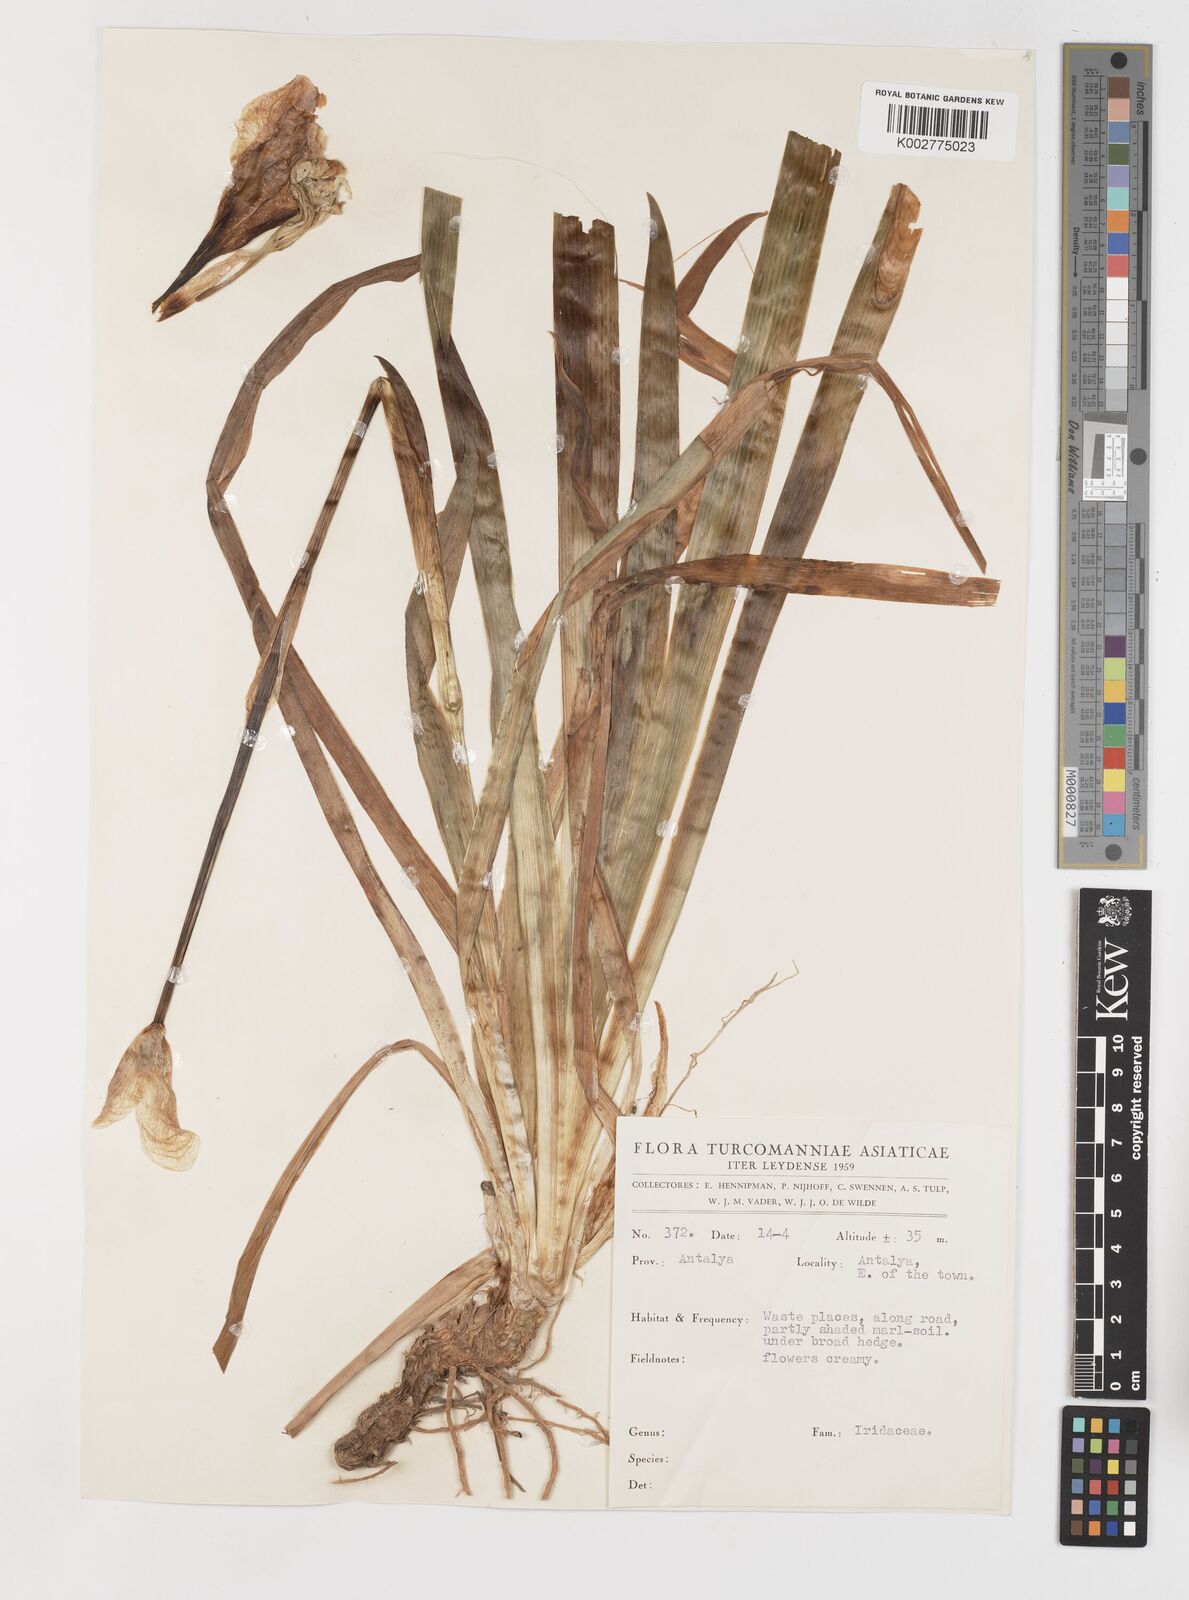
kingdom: Plantae
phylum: Tracheophyta
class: Liliopsida
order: Asparagales
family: Iridaceae
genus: Iris
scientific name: Iris florentina
